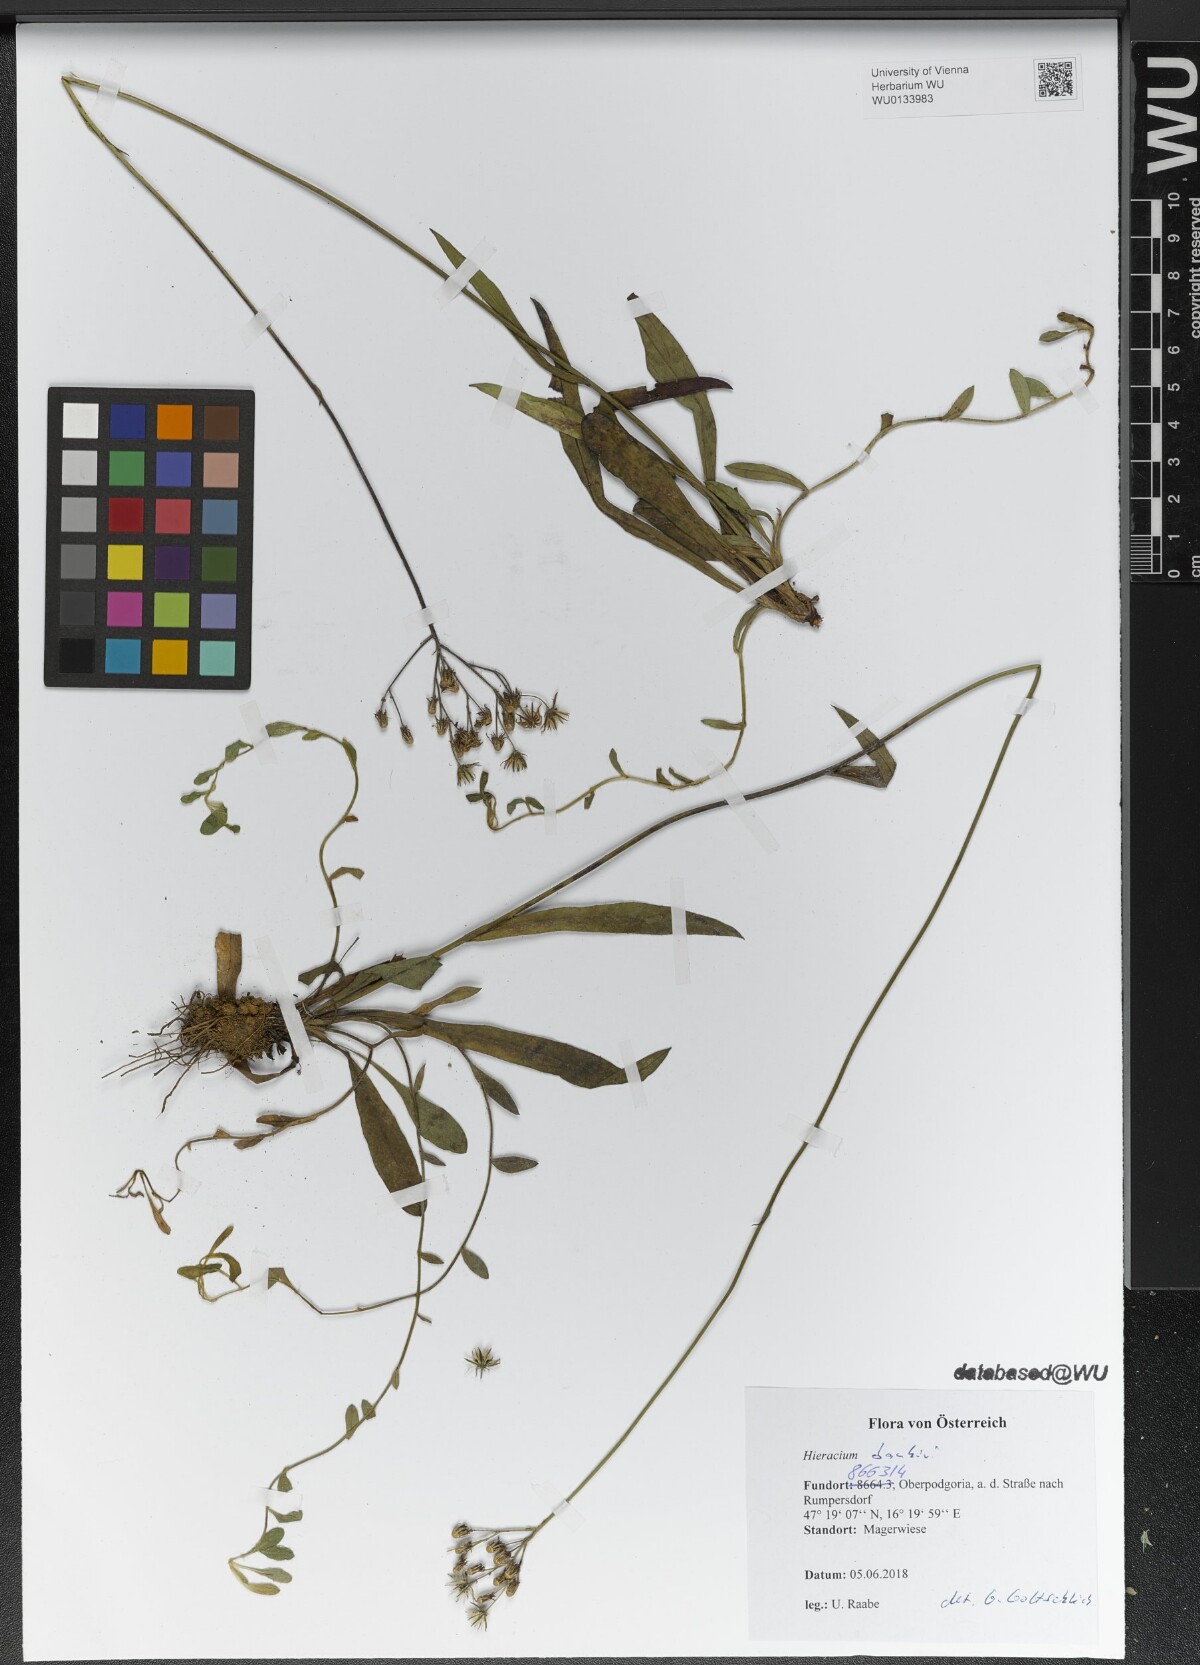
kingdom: Plantae
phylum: Tracheophyta
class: Magnoliopsida
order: Asterales
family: Asteraceae
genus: Pilosella
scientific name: Pilosella bauhini
